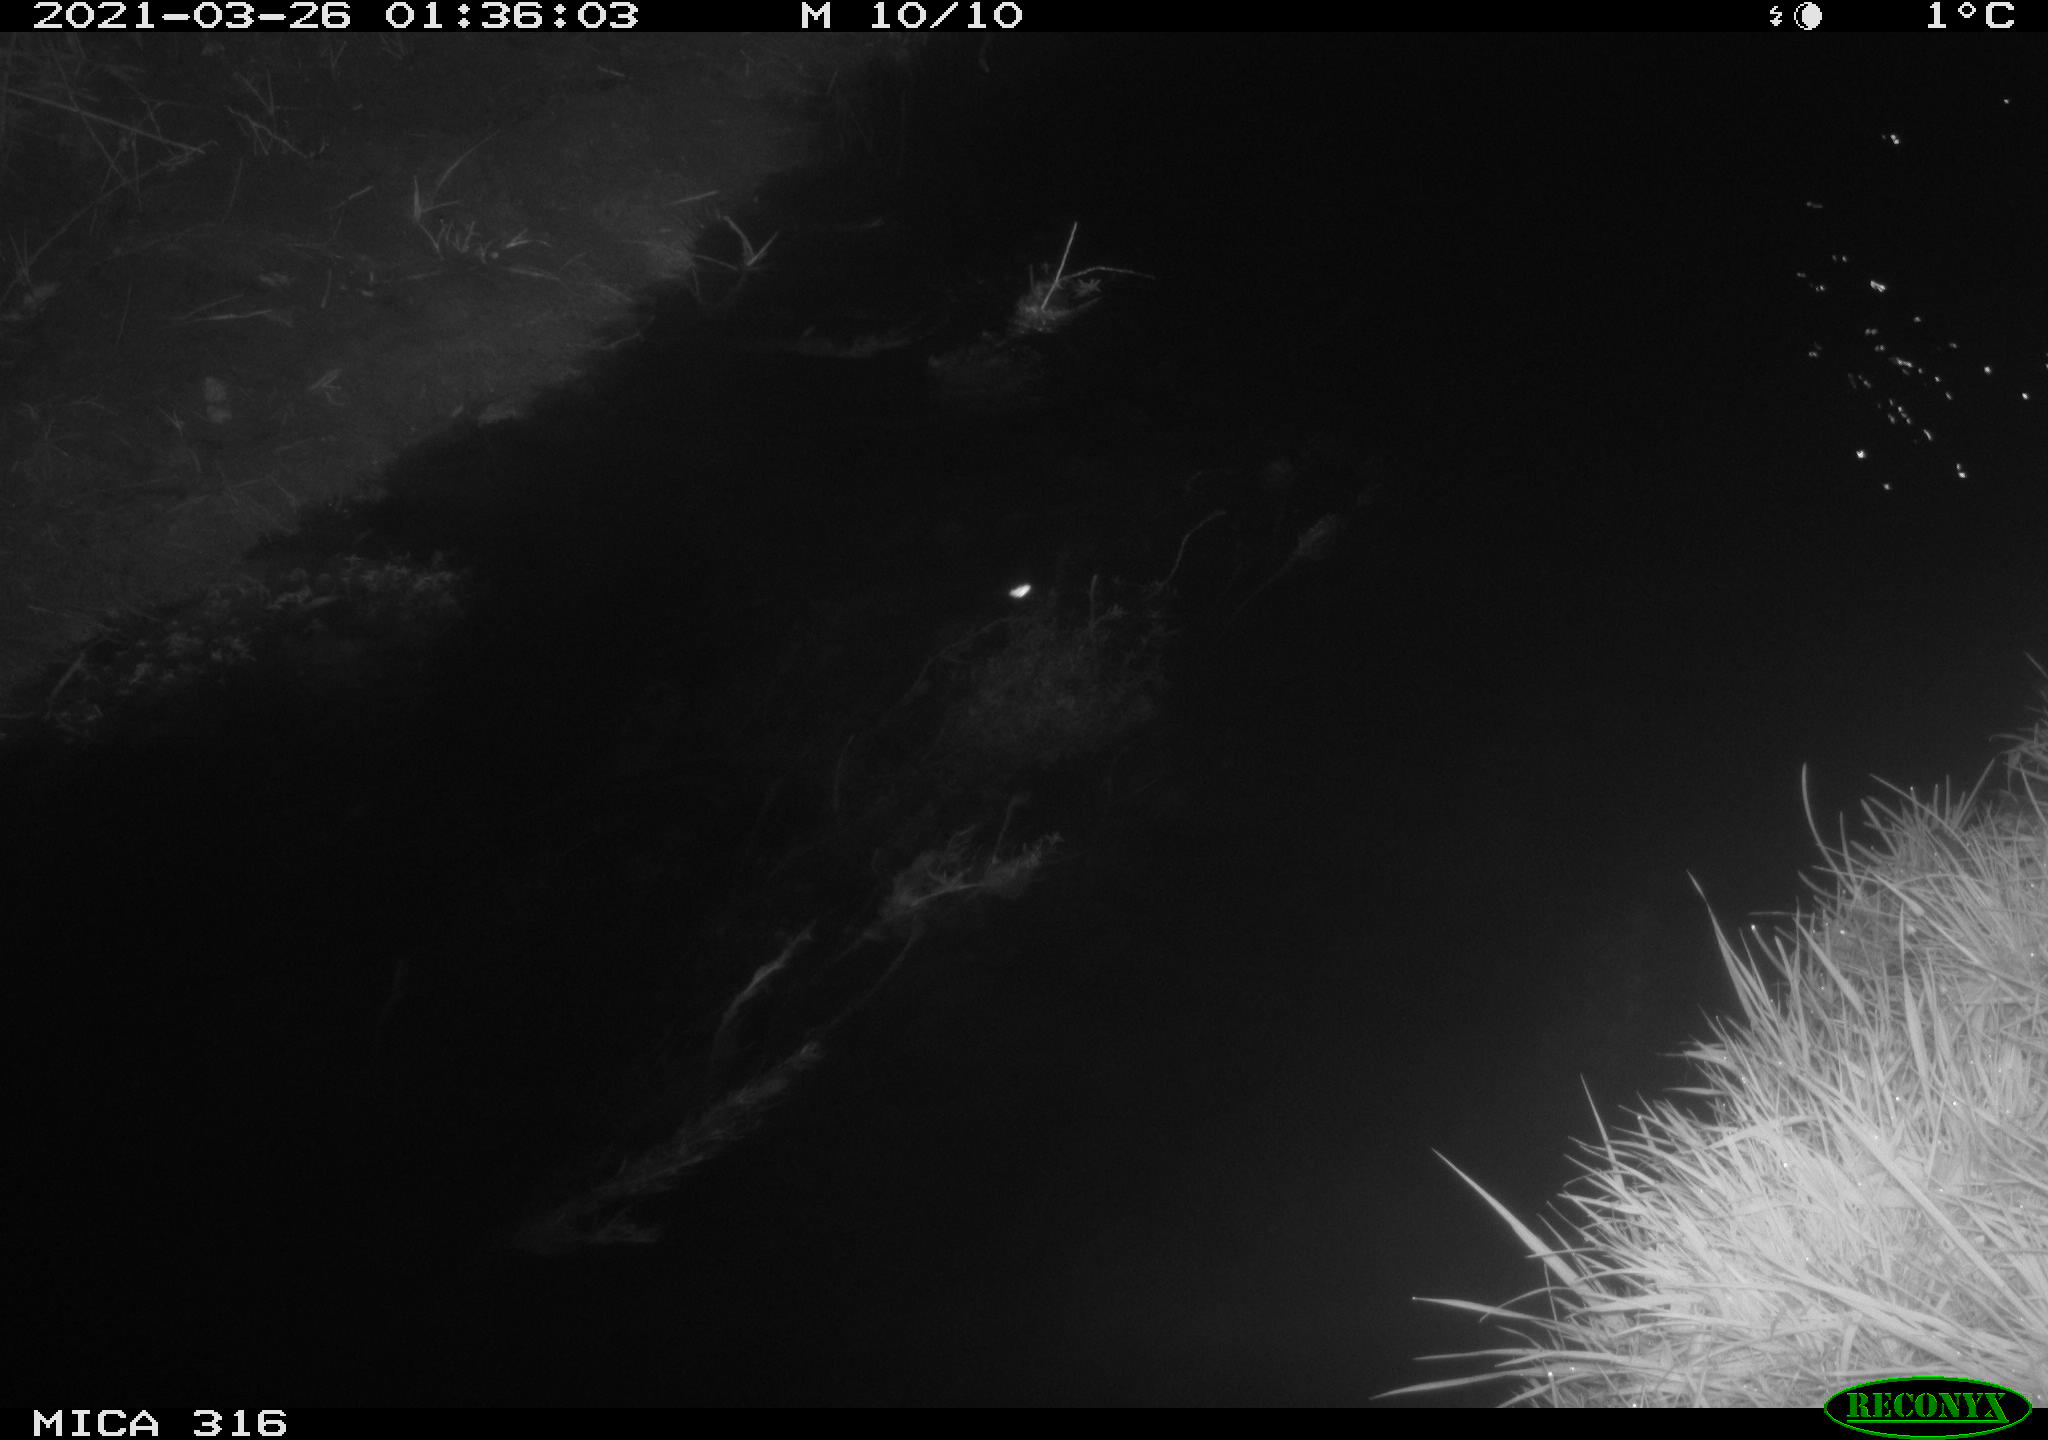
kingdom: Animalia
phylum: Chordata
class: Aves
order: Anseriformes
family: Anatidae
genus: Anas
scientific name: Anas platyrhynchos
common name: Mallard
